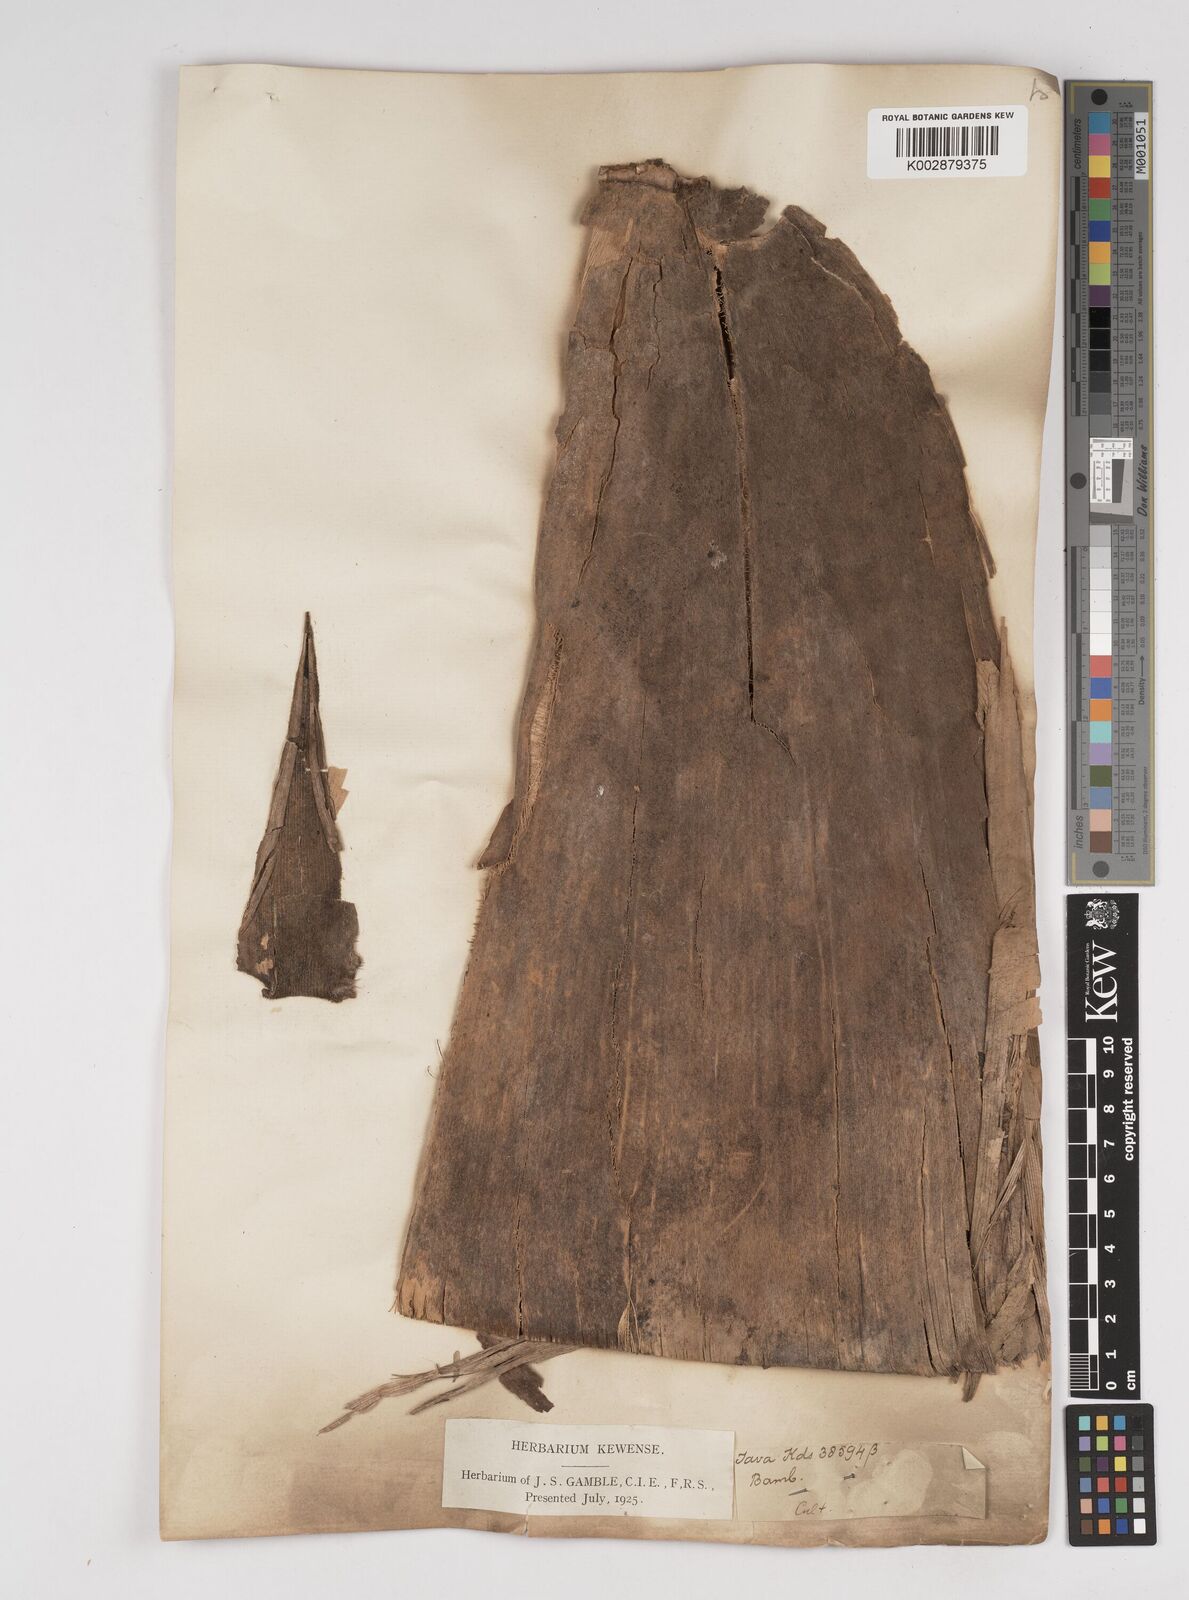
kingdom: Plantae
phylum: Tracheophyta
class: Liliopsida
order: Poales
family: Poaceae
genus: Dendrocalamus
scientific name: Dendrocalamus asper
